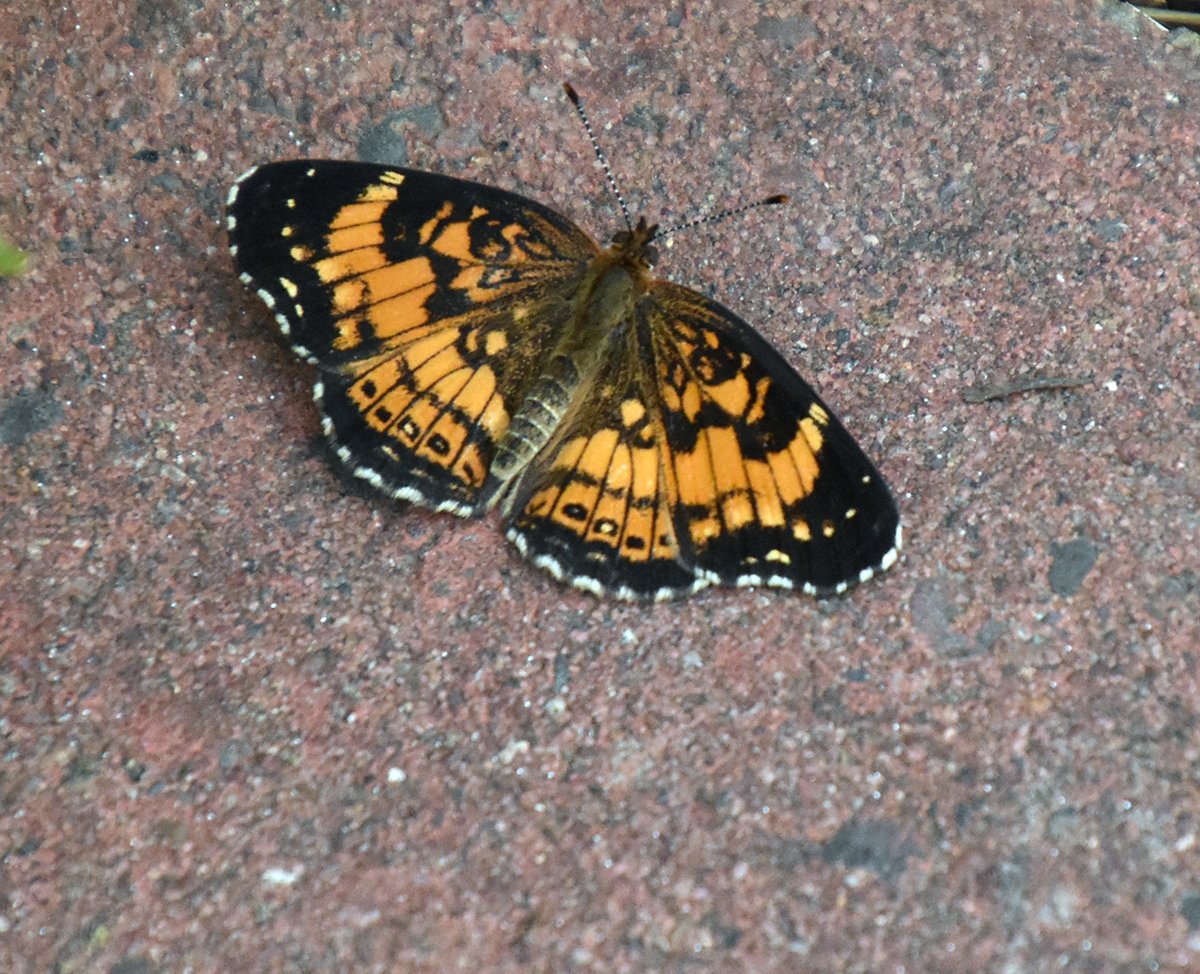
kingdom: Animalia
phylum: Arthropoda
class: Insecta
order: Lepidoptera
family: Nymphalidae
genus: Chlosyne
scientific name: Chlosyne nycteis
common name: Silvery Checkerspot
